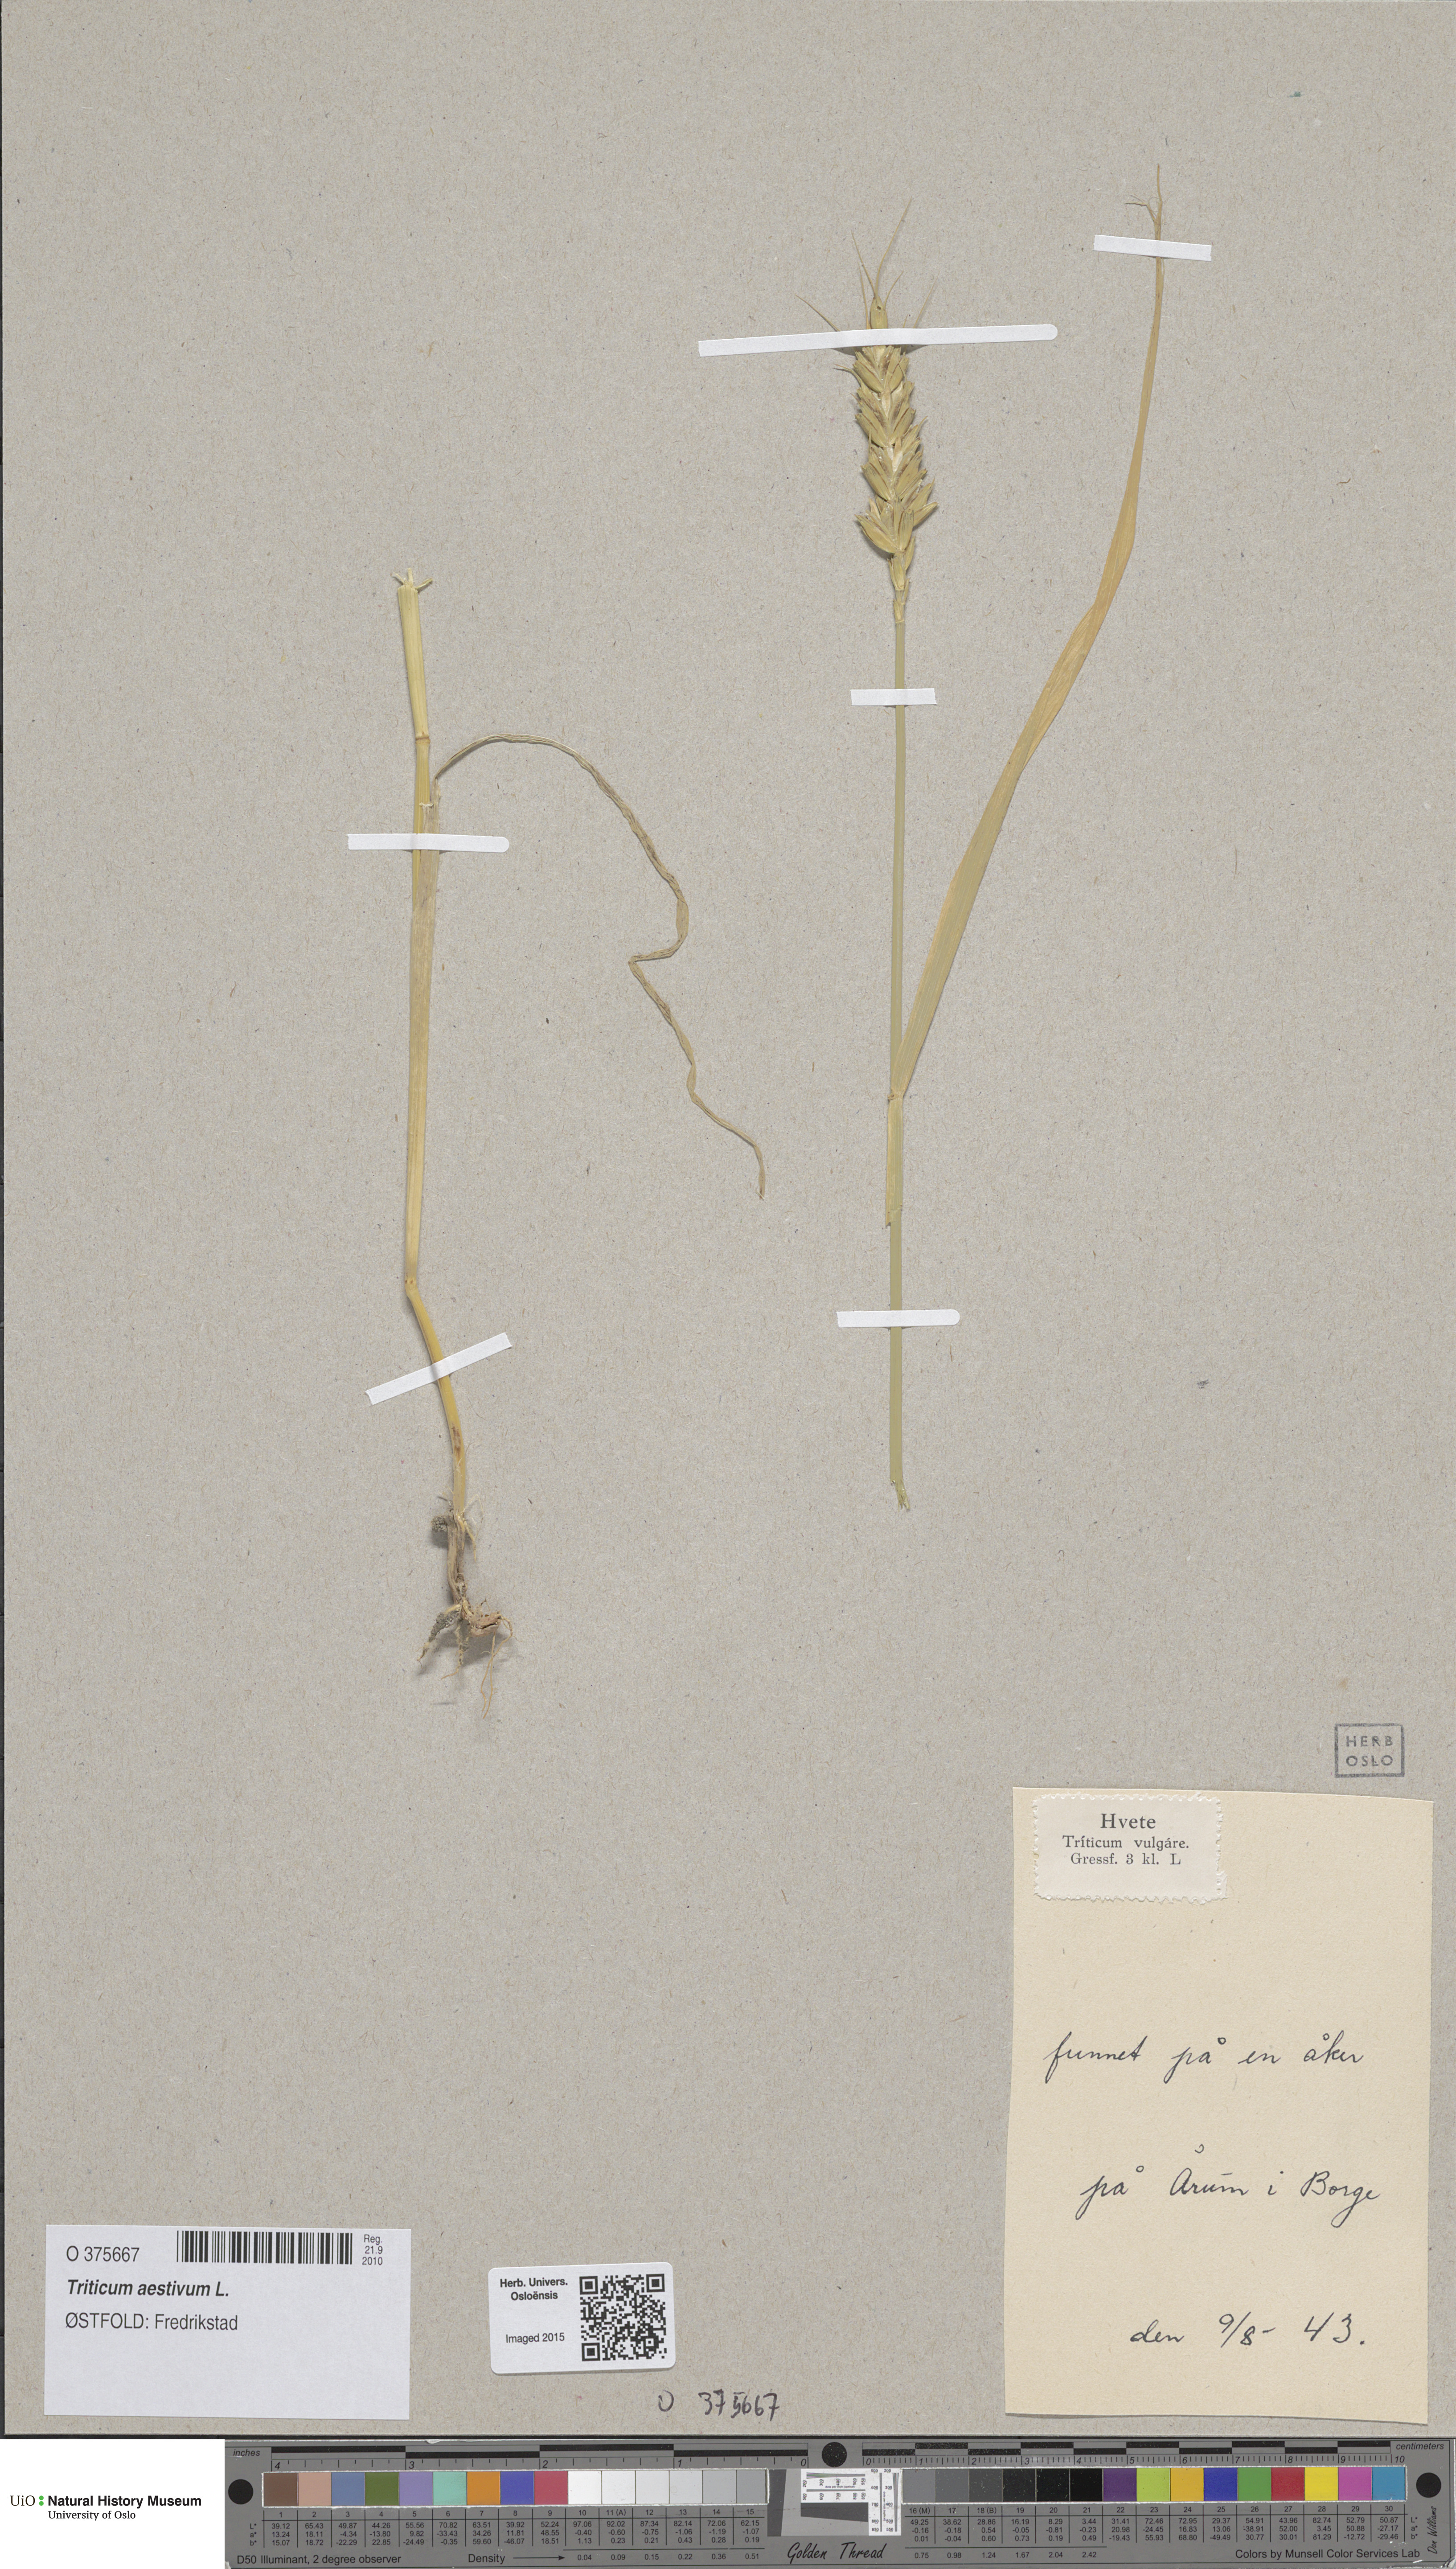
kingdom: Plantae
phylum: Tracheophyta
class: Liliopsida
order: Poales
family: Poaceae
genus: Triticum
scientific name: Triticum aestivum
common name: Common wheat
